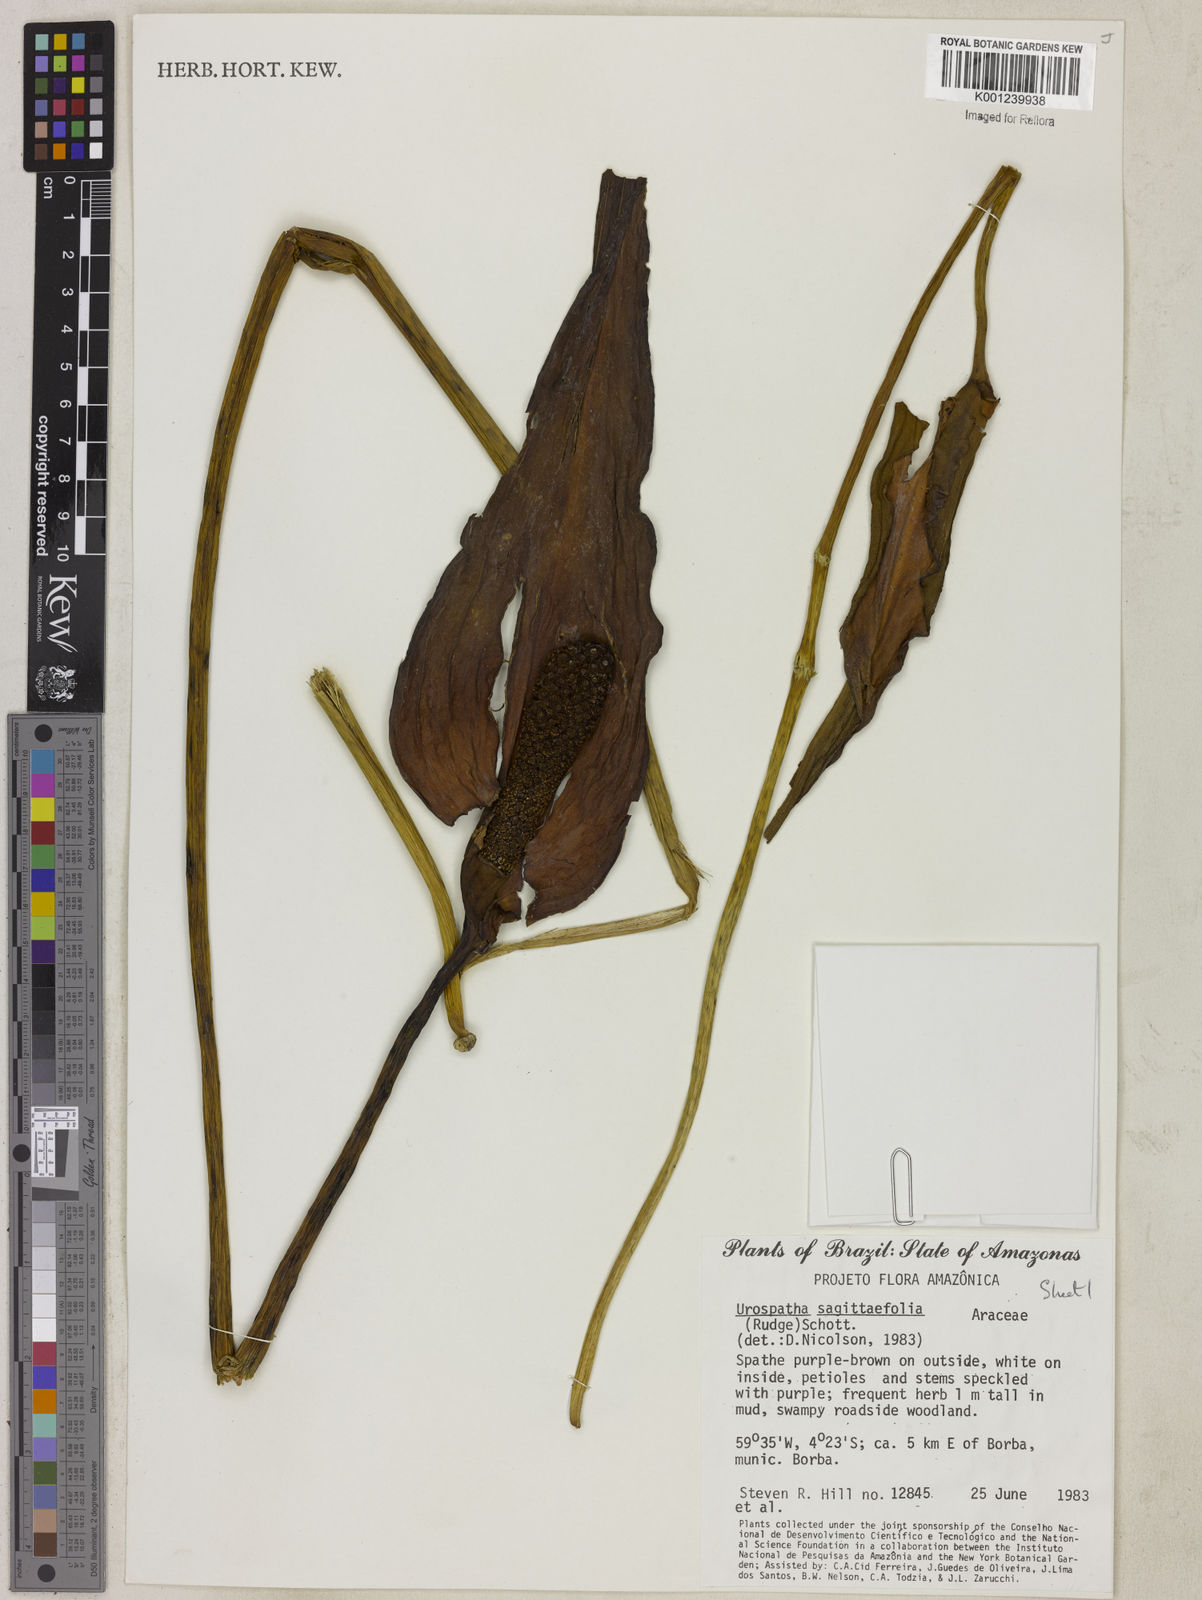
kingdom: Plantae
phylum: Tracheophyta
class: Liliopsida
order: Alismatales
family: Araceae
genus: Urospatha
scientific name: Urospatha sagittifolia
